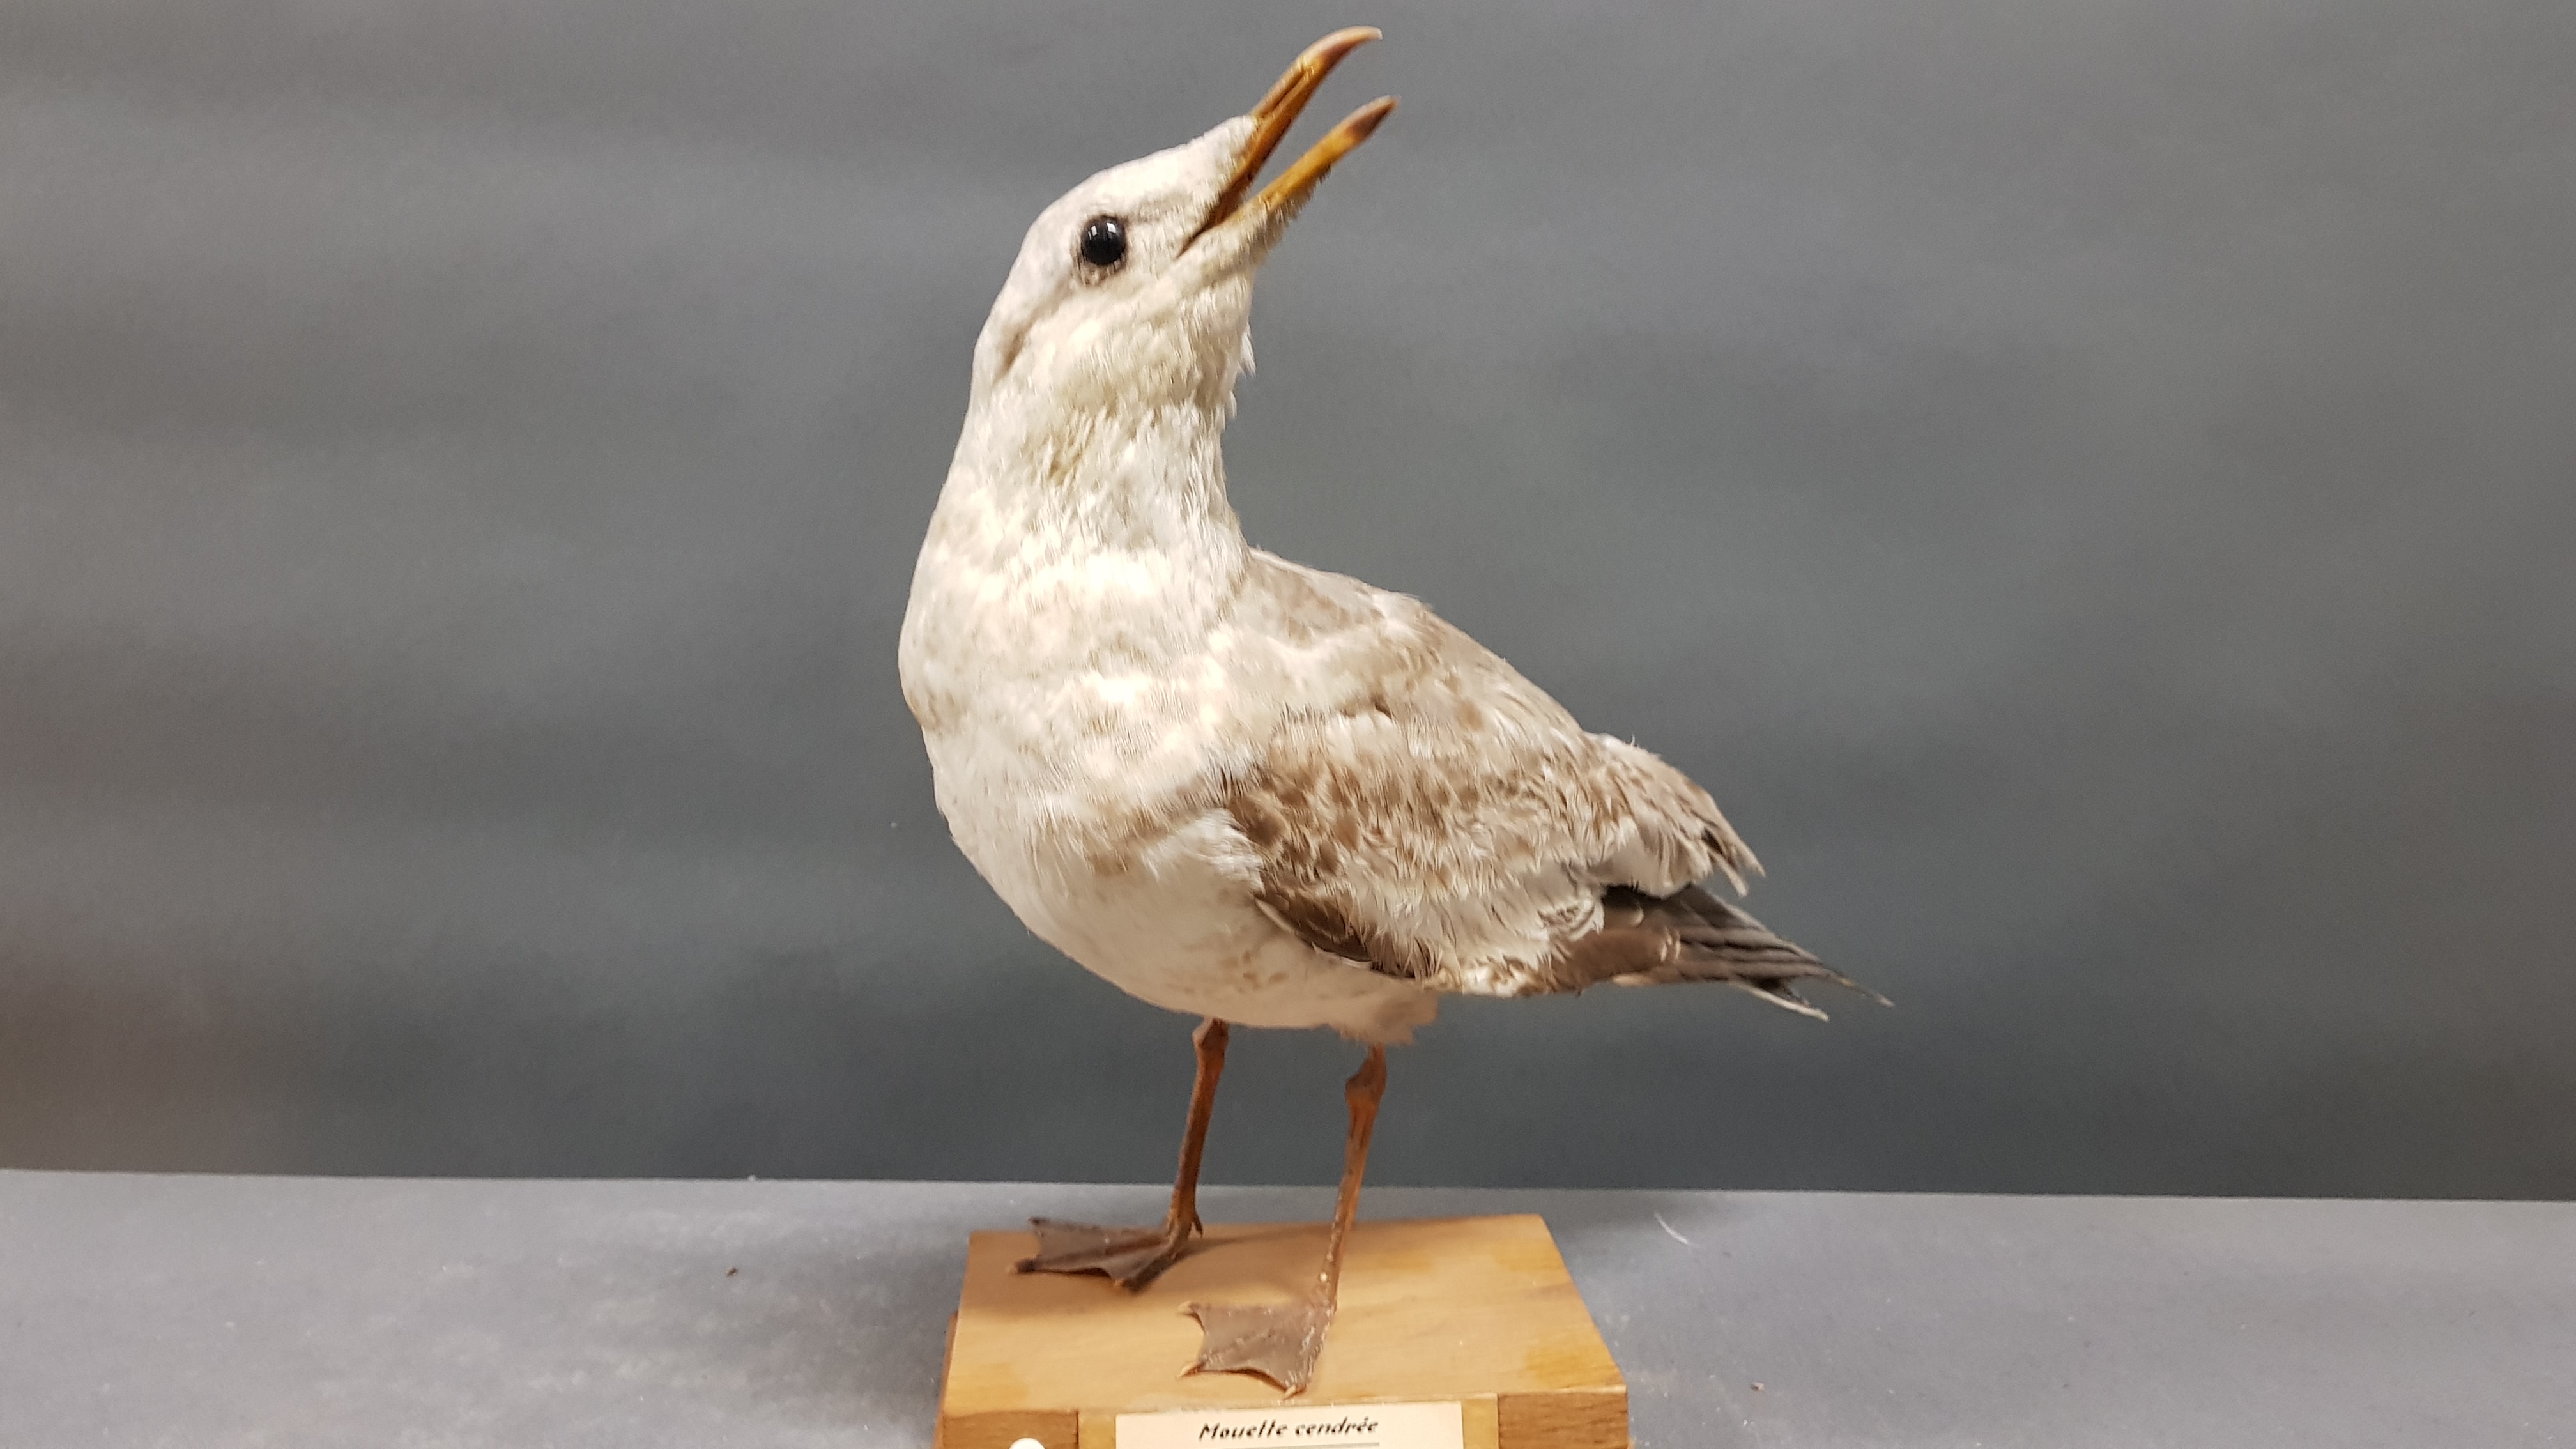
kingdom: Animalia
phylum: Chordata
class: Aves
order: Charadriiformes
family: Laridae
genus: Larus
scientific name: Larus canus
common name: Mew gull
